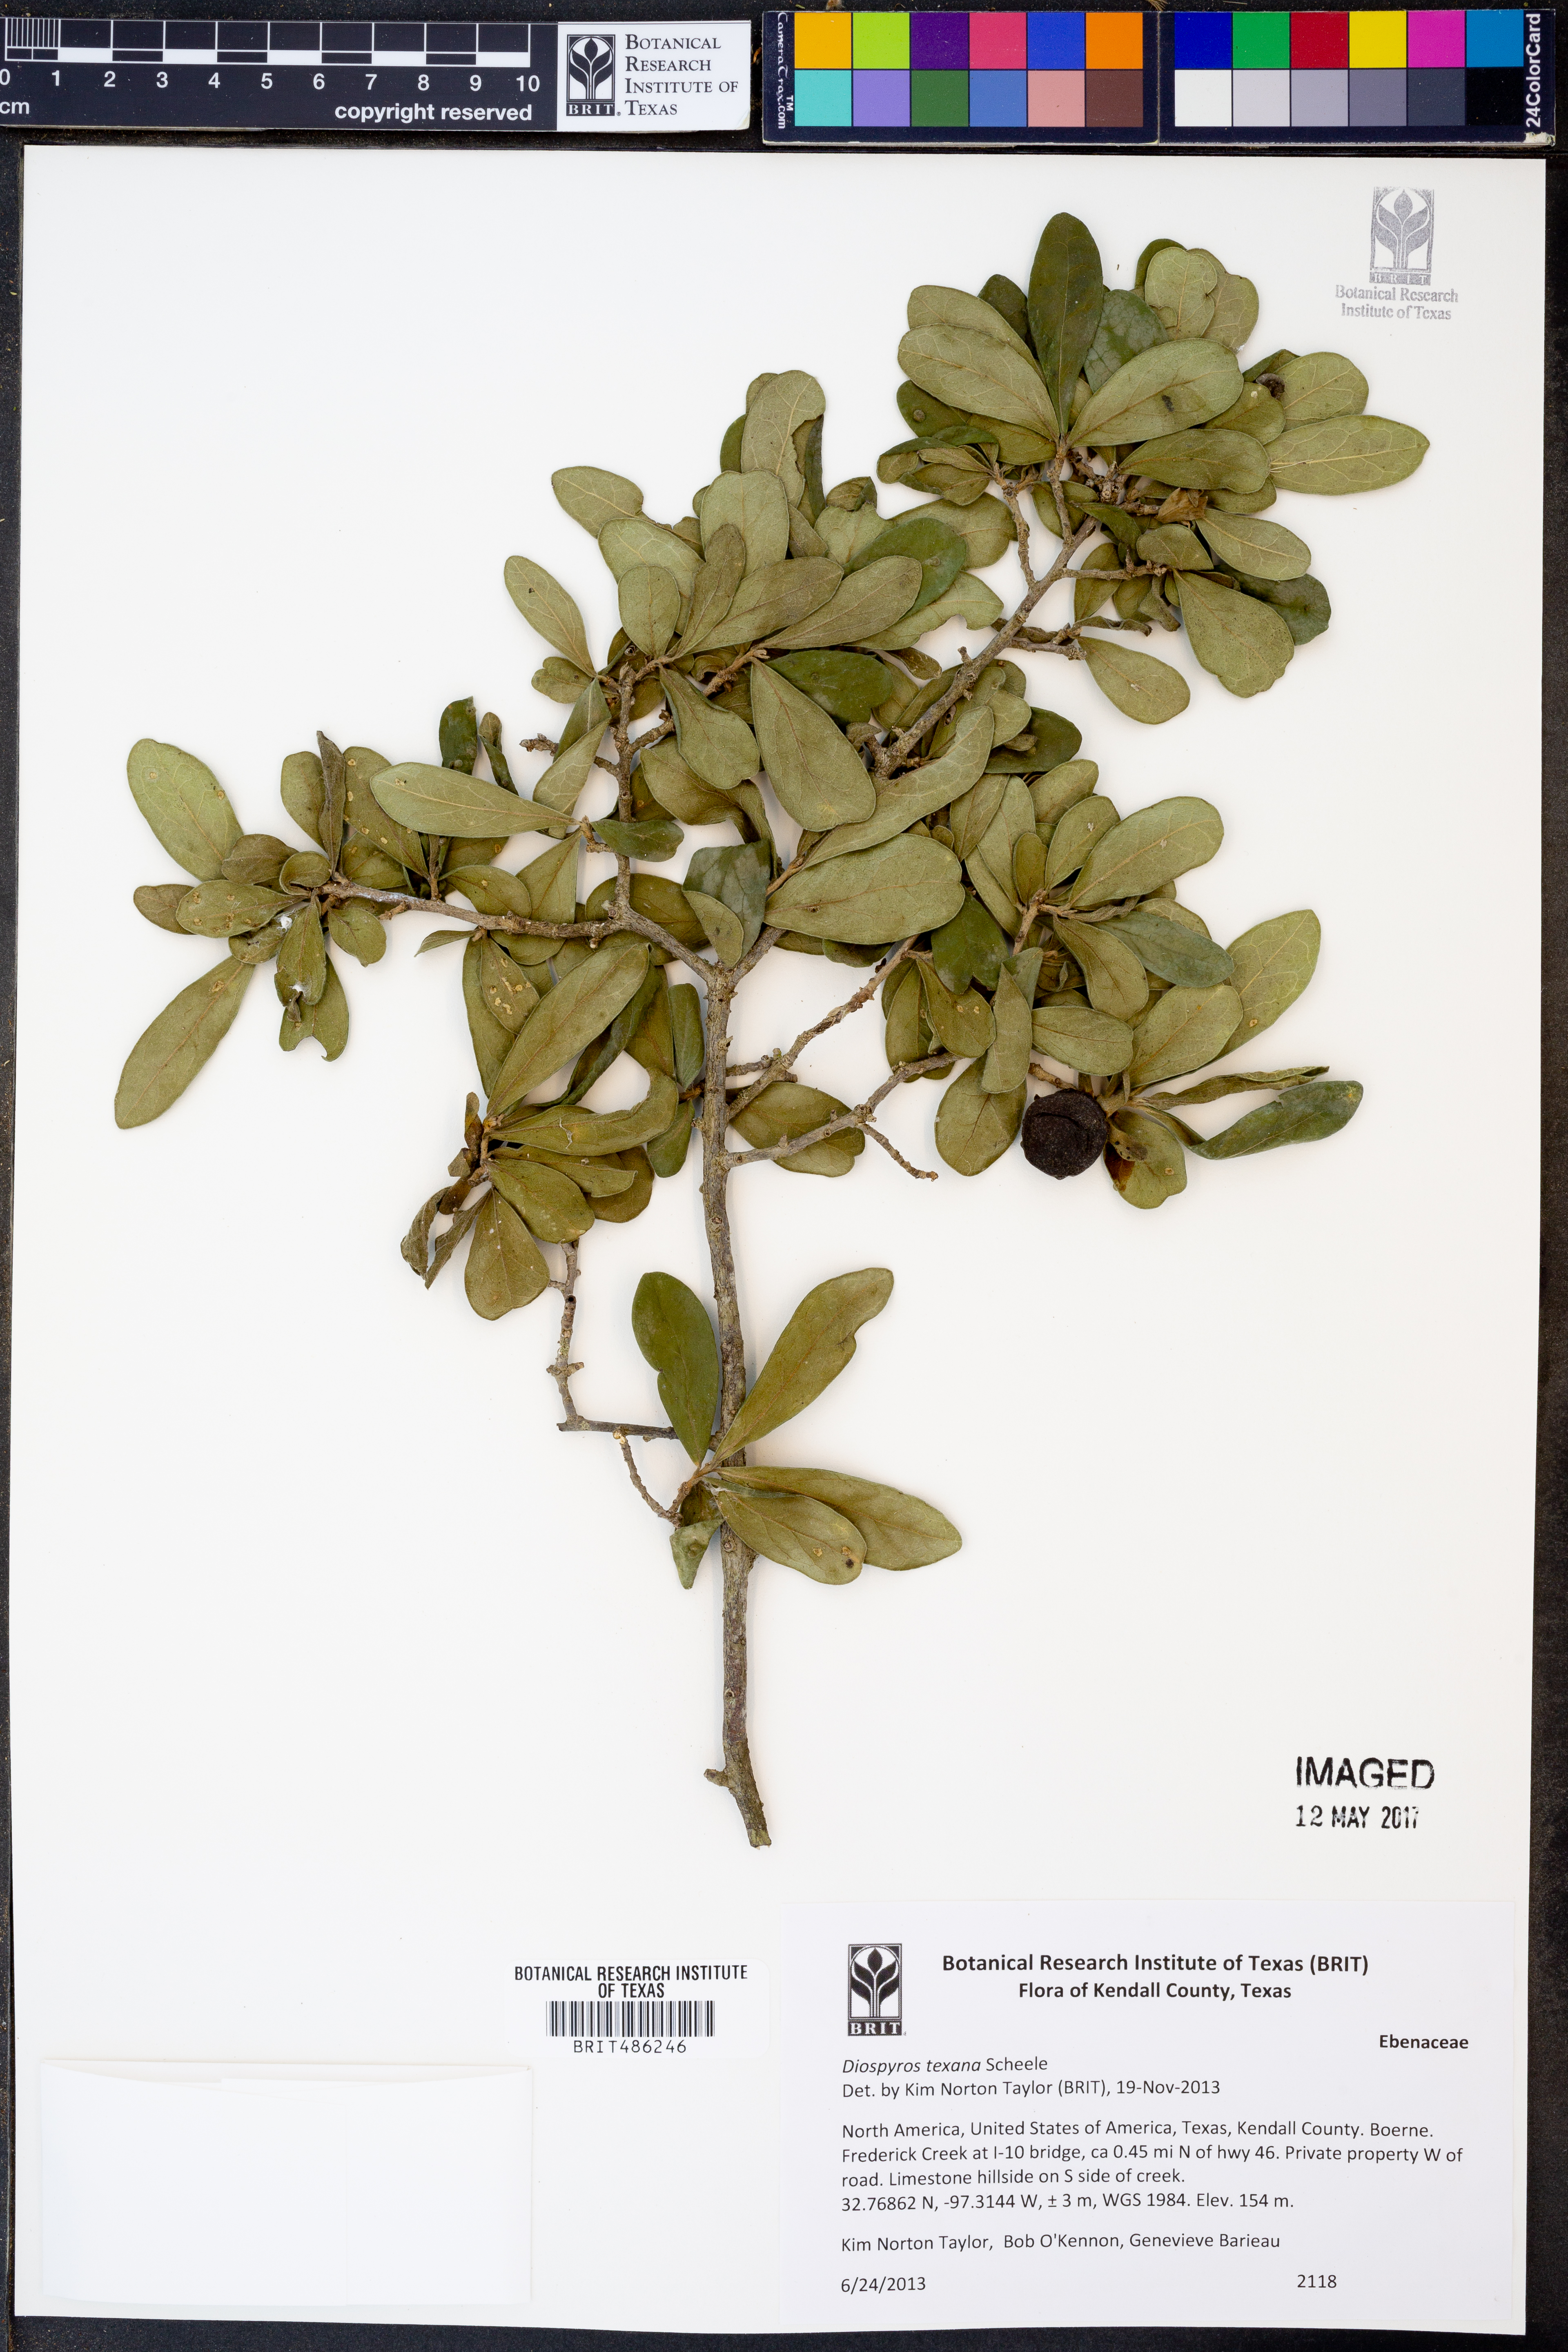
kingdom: Plantae
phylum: Tracheophyta
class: Magnoliopsida
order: Ericales
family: Ebenaceae
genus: Diospyros
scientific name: Diospyros texana
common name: Texas persimmon
